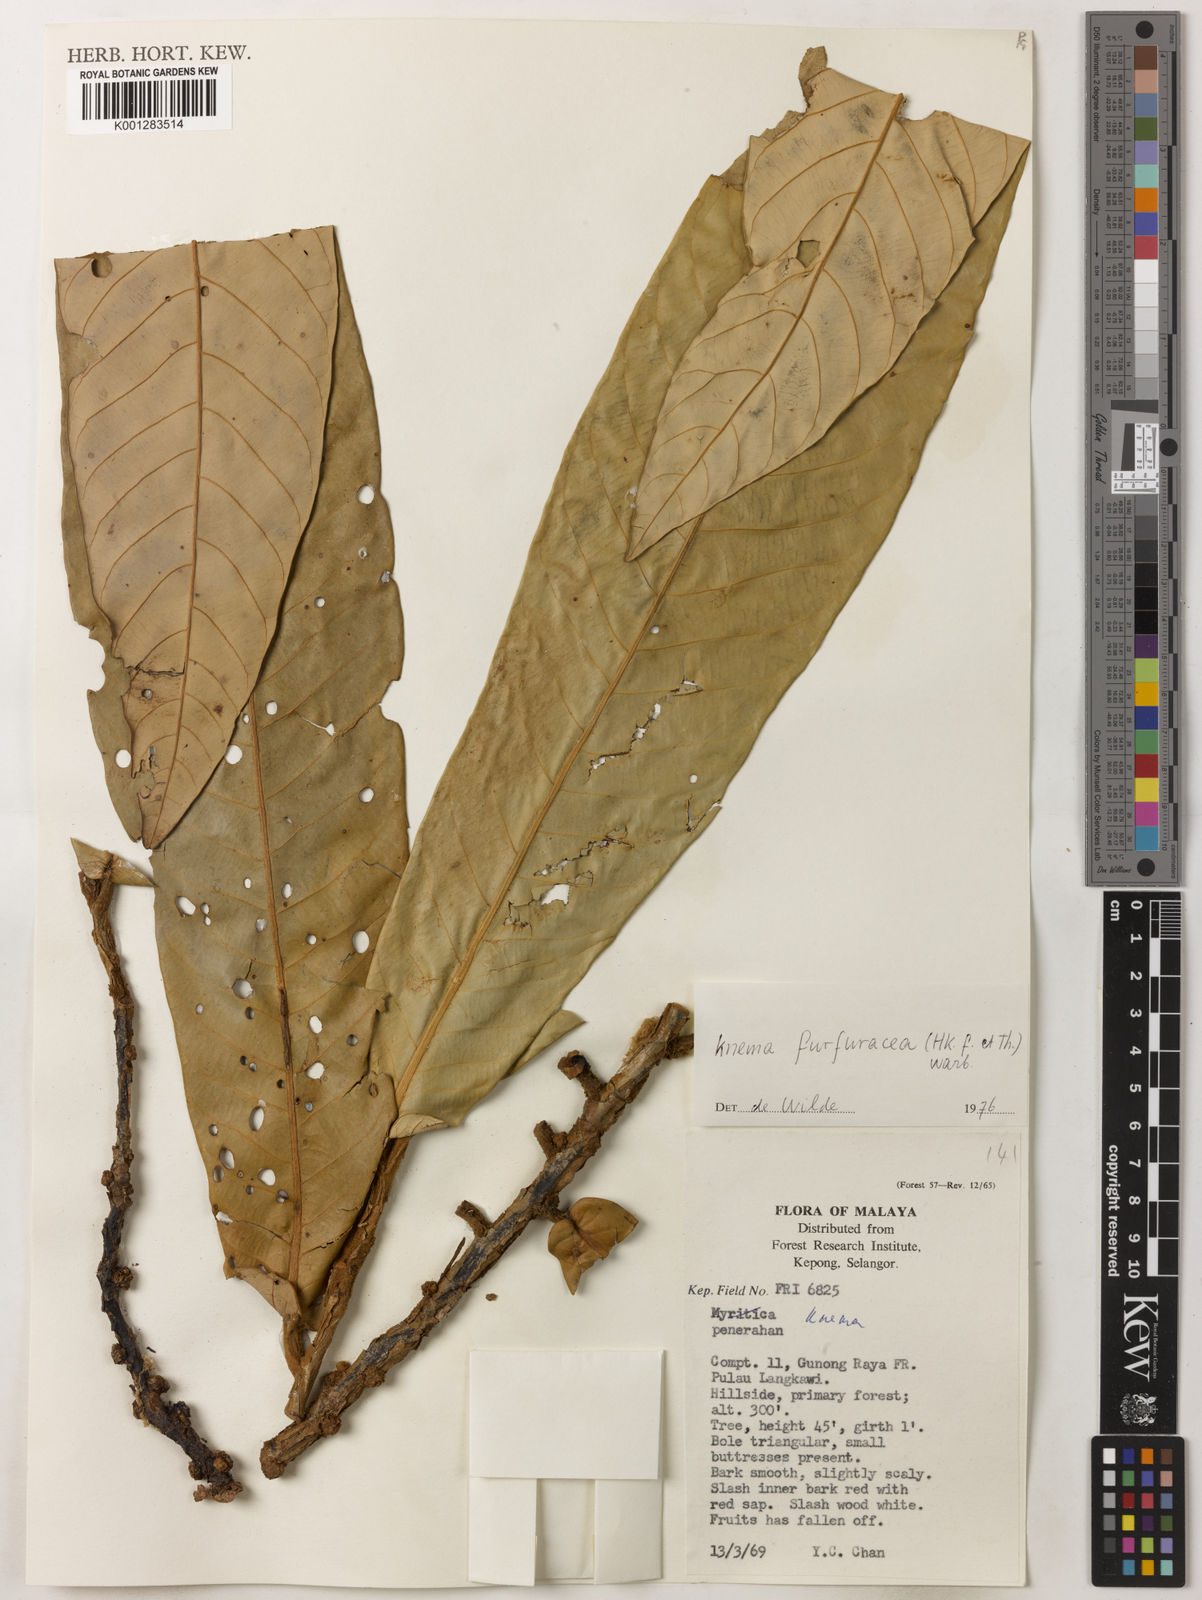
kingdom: Plantae
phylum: Tracheophyta
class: Magnoliopsida
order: Magnoliales
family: Myristicaceae
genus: Knema
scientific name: Knema furfuracea
